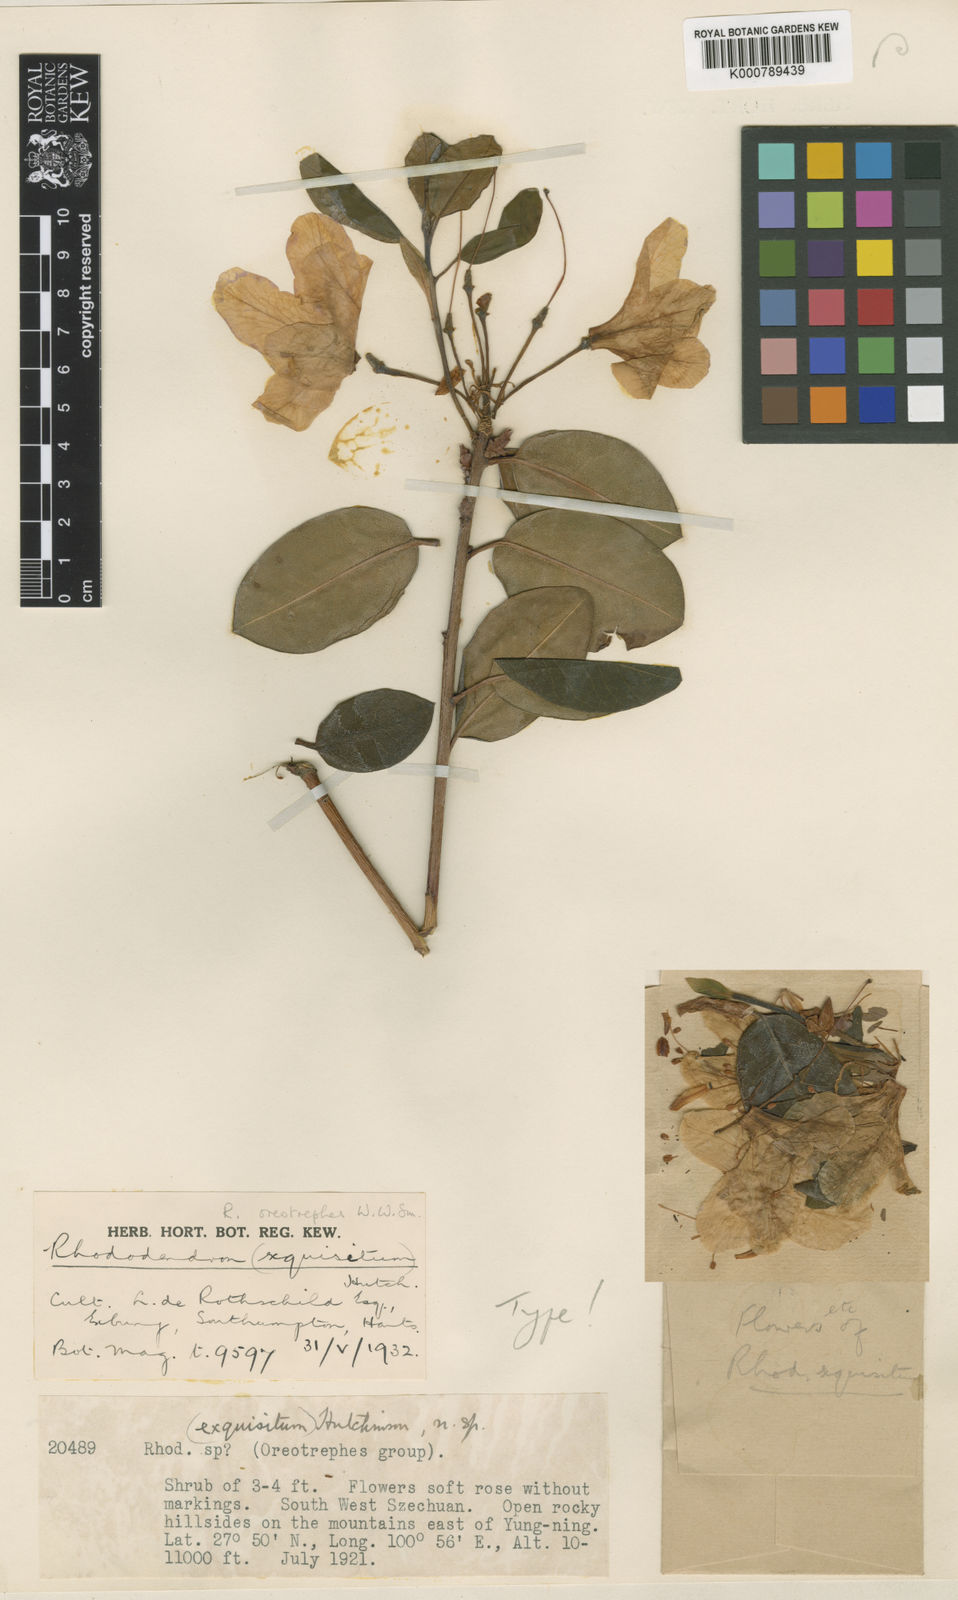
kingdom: Plantae
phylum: Tracheophyta
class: Magnoliopsida
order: Ericales
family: Ericaceae
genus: Rhododendron
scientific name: Rhododendron oreotrephes
